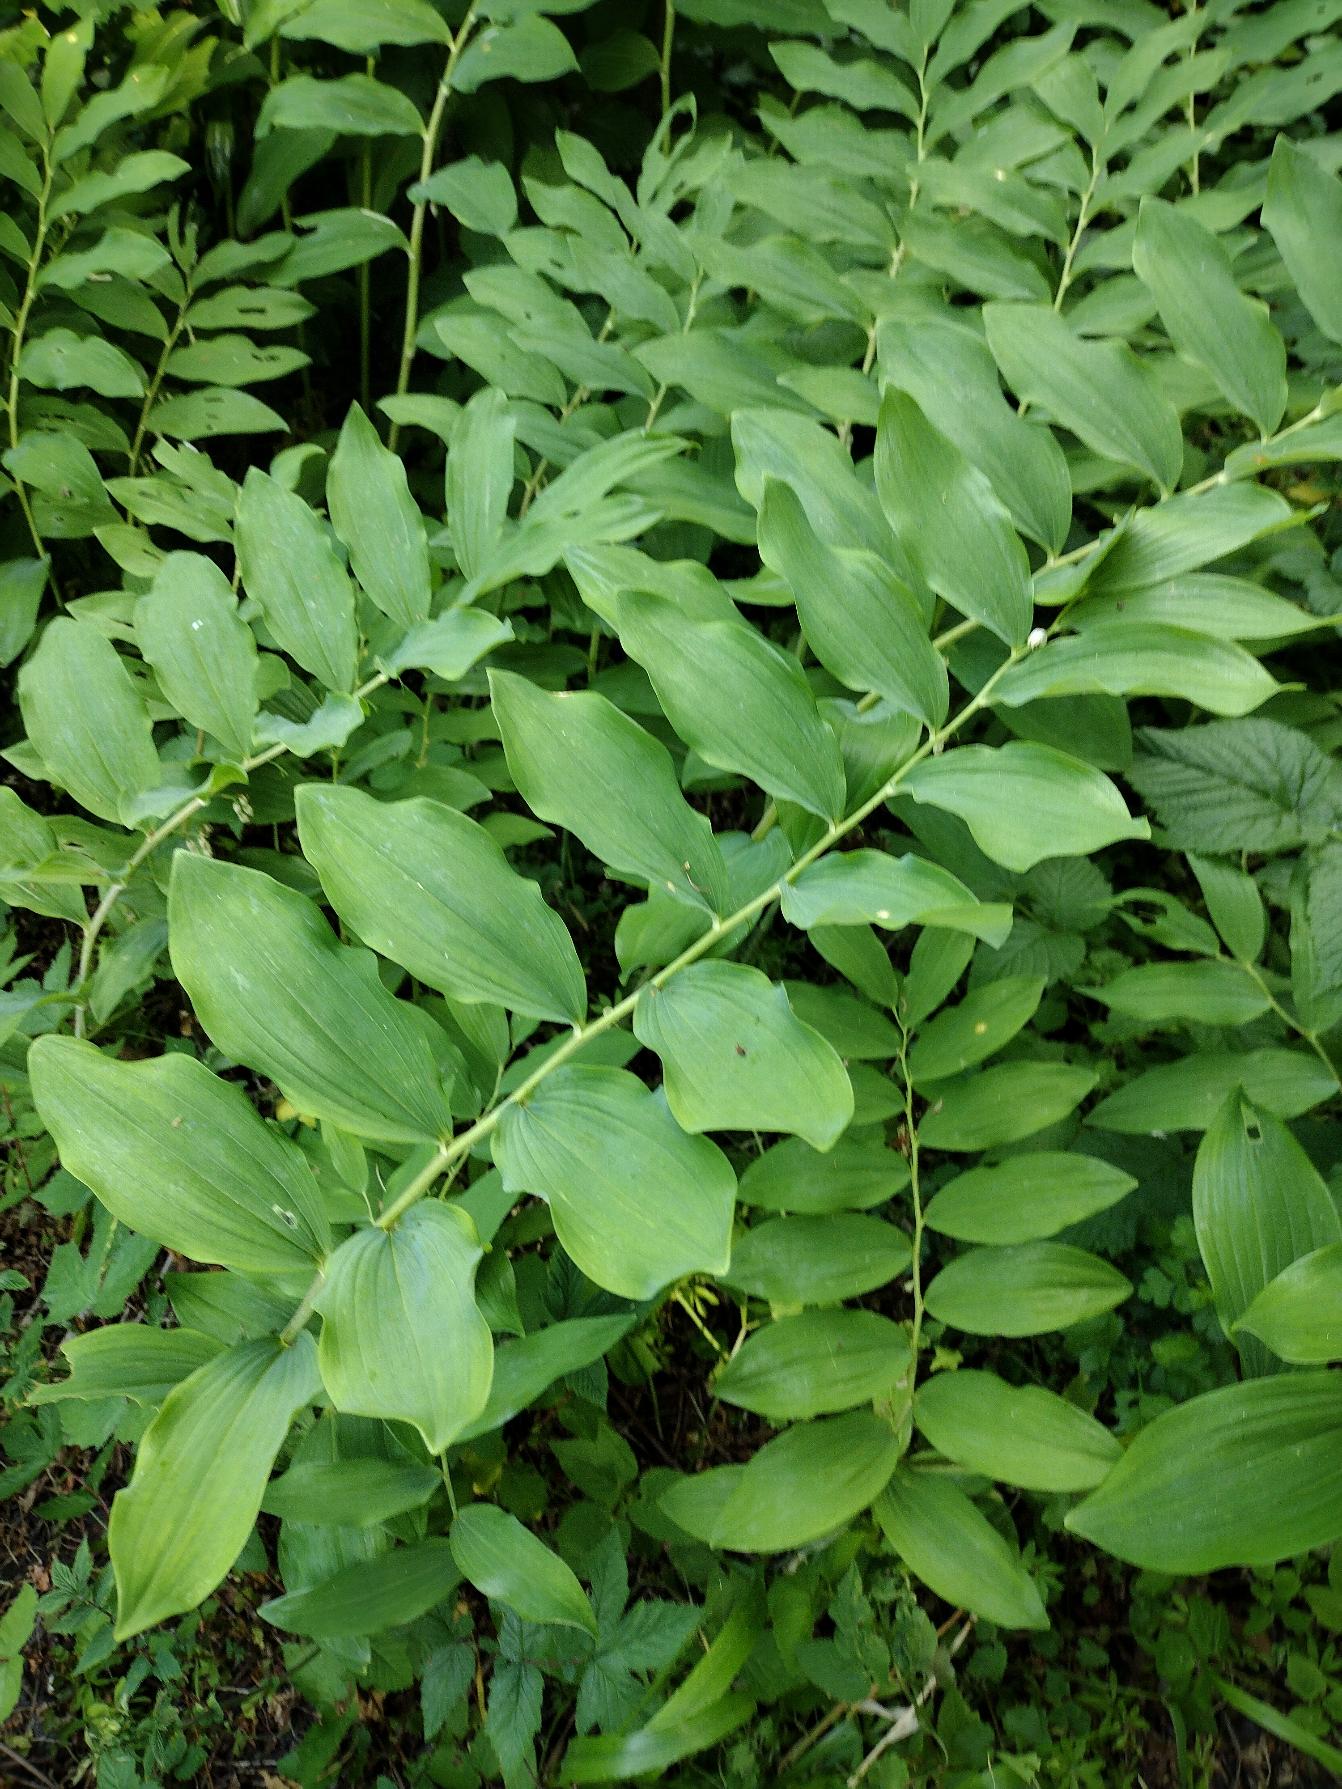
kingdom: Plantae
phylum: Tracheophyta
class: Liliopsida
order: Asparagales
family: Asparagaceae
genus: Polygonatum
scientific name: Polygonatum multiflorum
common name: Stor konval
